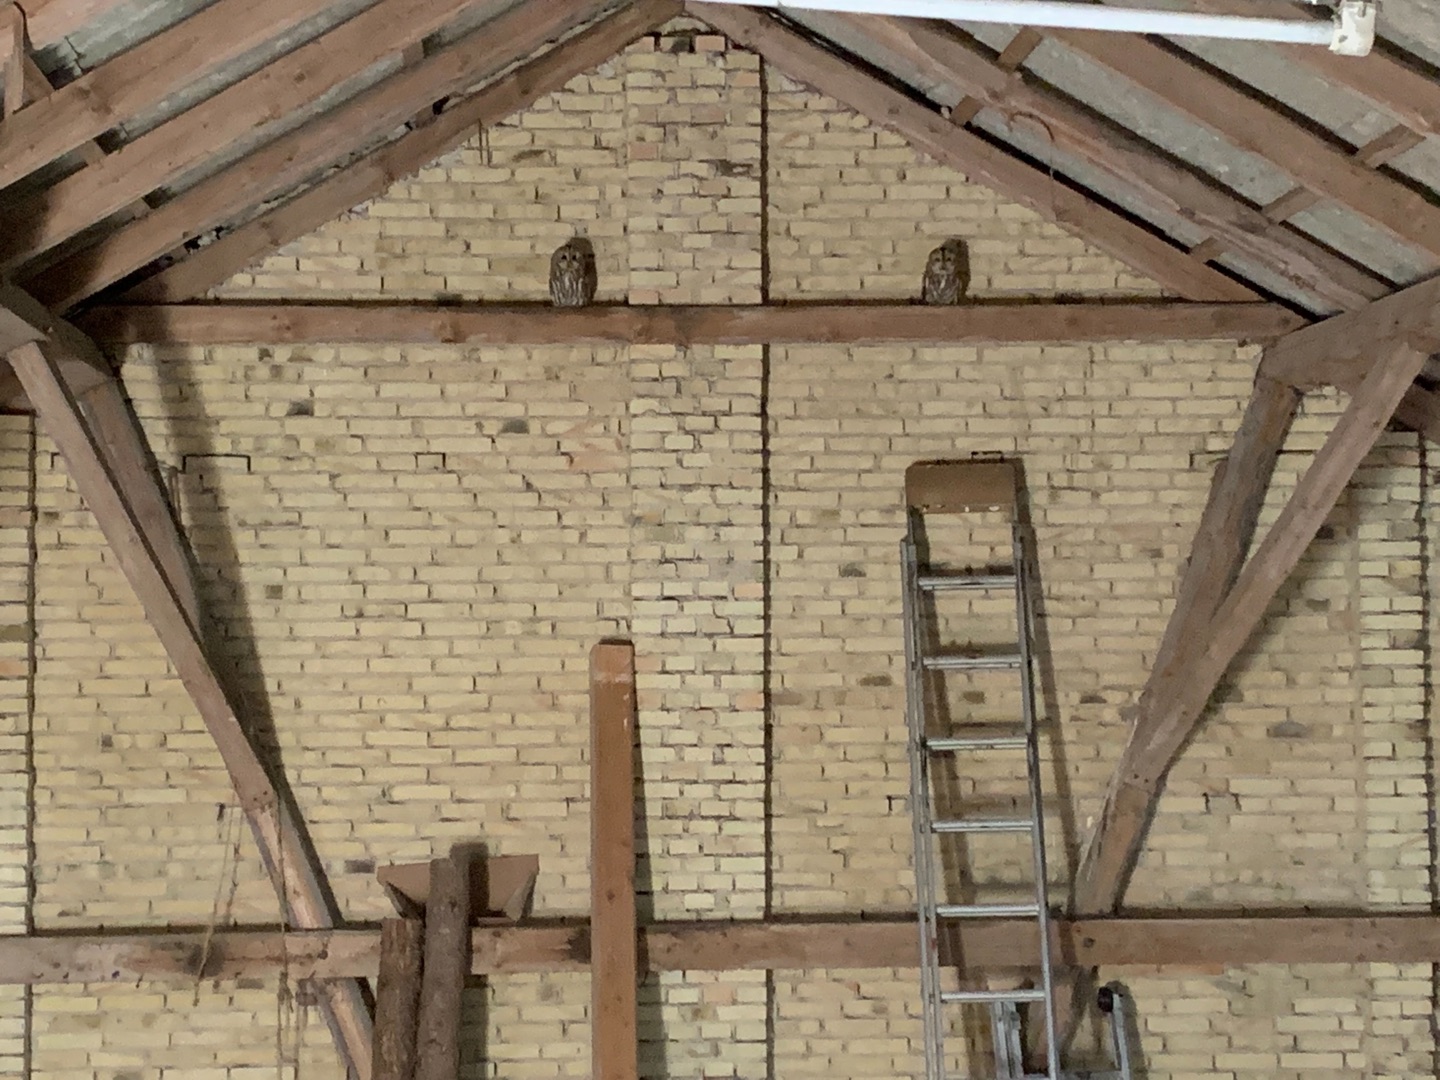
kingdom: Animalia
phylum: Chordata
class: Aves
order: Strigiformes
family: Strigidae
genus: Strix
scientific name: Strix aluco
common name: Natugle
